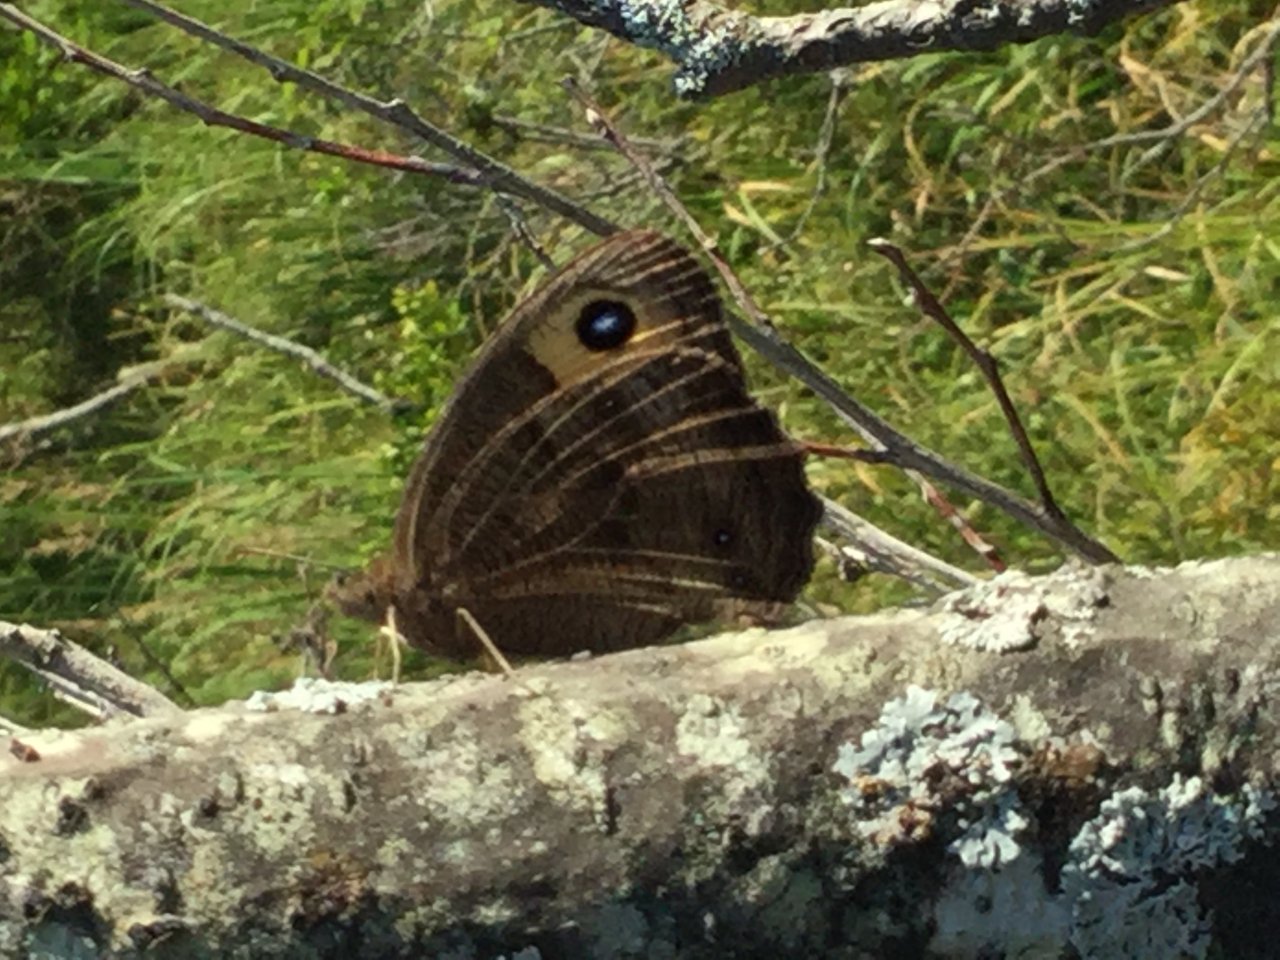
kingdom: Animalia
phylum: Arthropoda
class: Insecta
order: Lepidoptera
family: Nymphalidae
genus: Cercyonis
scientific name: Cercyonis pegala
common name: Common Wood-Nymph
